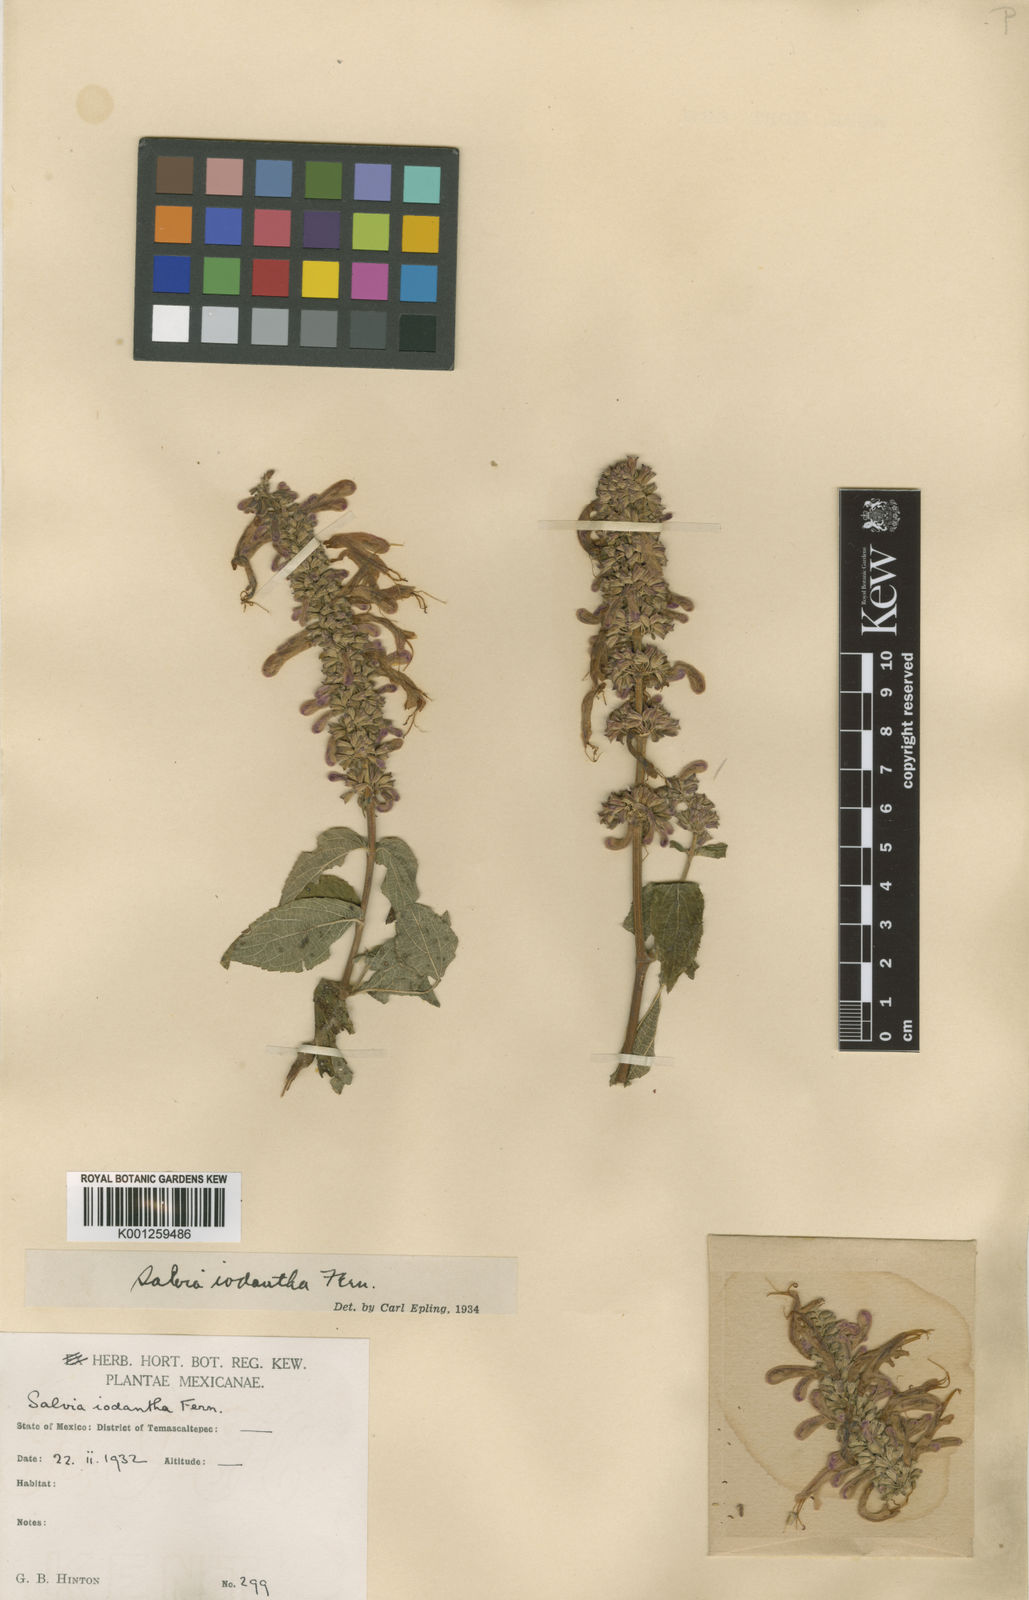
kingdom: Plantae
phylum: Tracheophyta
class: Magnoliopsida
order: Lamiales
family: Lamiaceae
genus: Salvia
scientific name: Salvia iodantha
